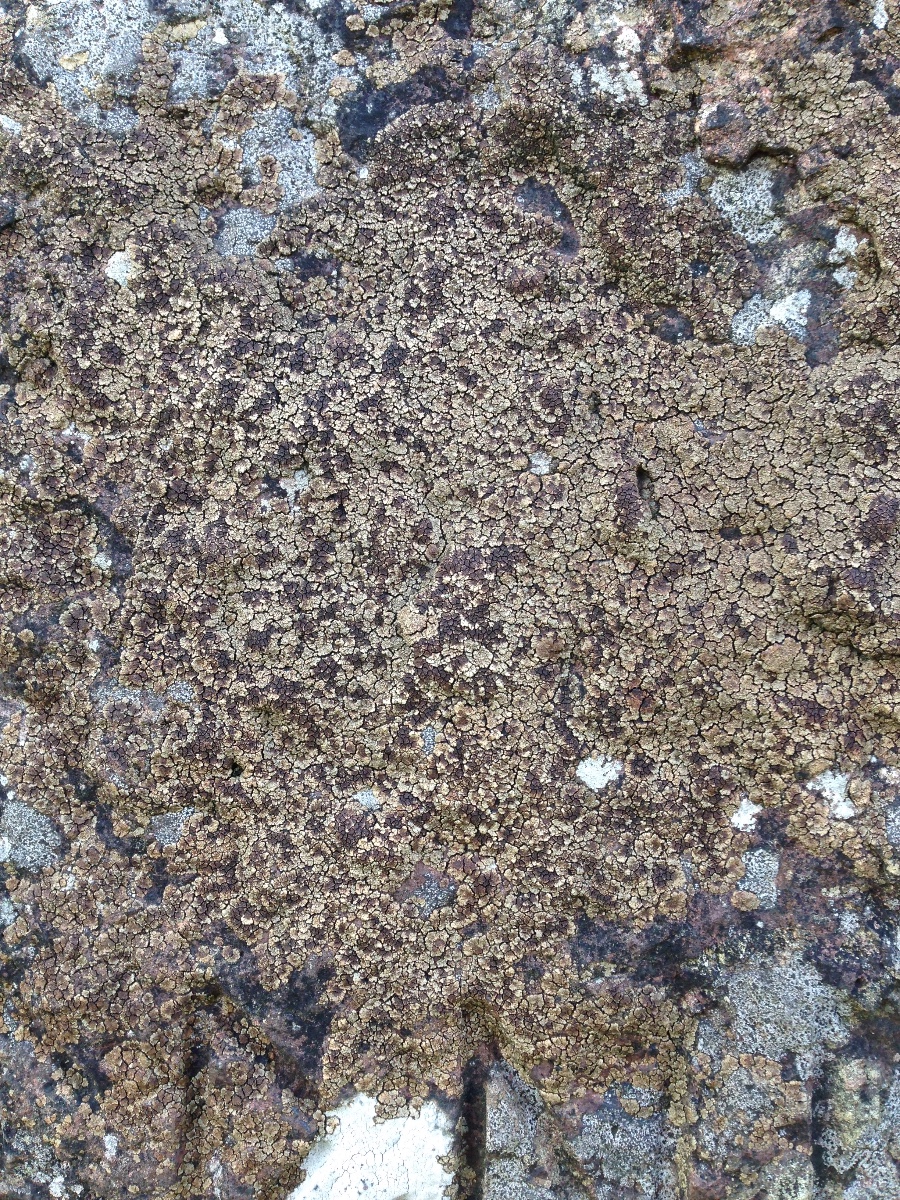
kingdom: Fungi
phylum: Ascomycota
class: Lecanoromycetes
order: Acarosporales
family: Acarosporaceae
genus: Acarospora
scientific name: Acarospora fuscata
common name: brun småsporelav
